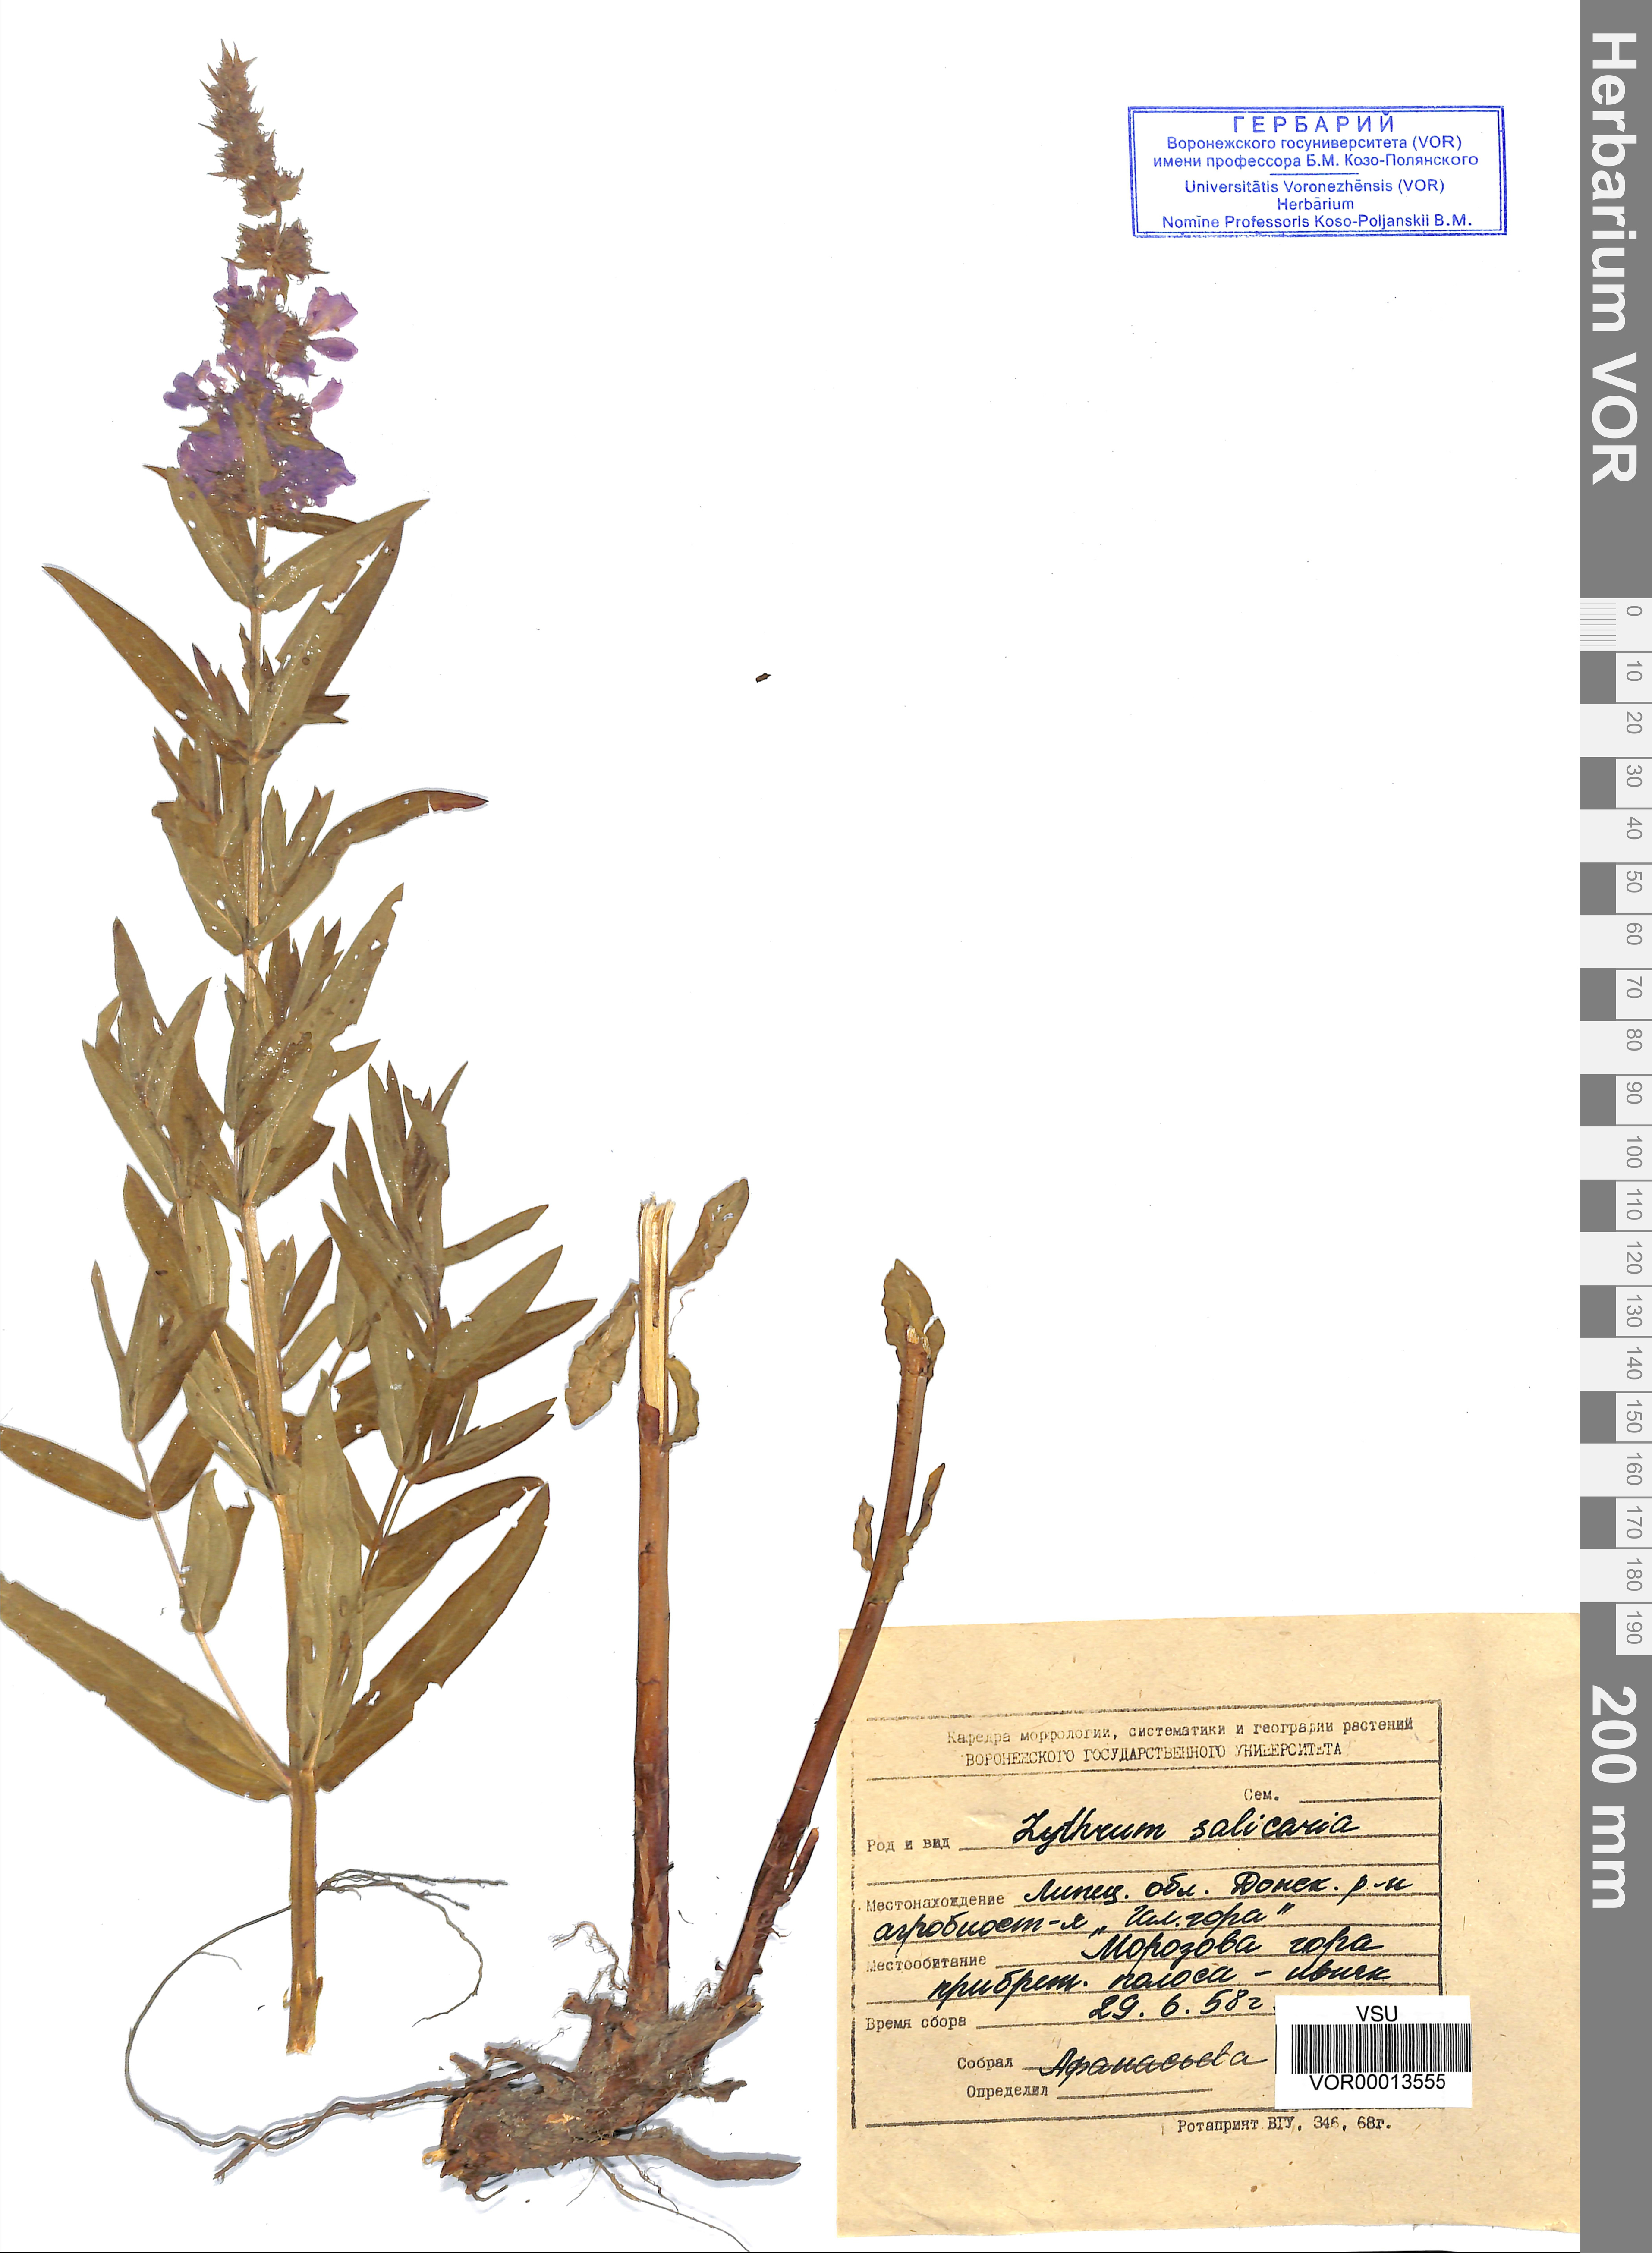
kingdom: Plantae
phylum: Tracheophyta
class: Magnoliopsida
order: Myrtales
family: Lythraceae
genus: Lythrum
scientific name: Lythrum salicaria
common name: Purple loosestrife
